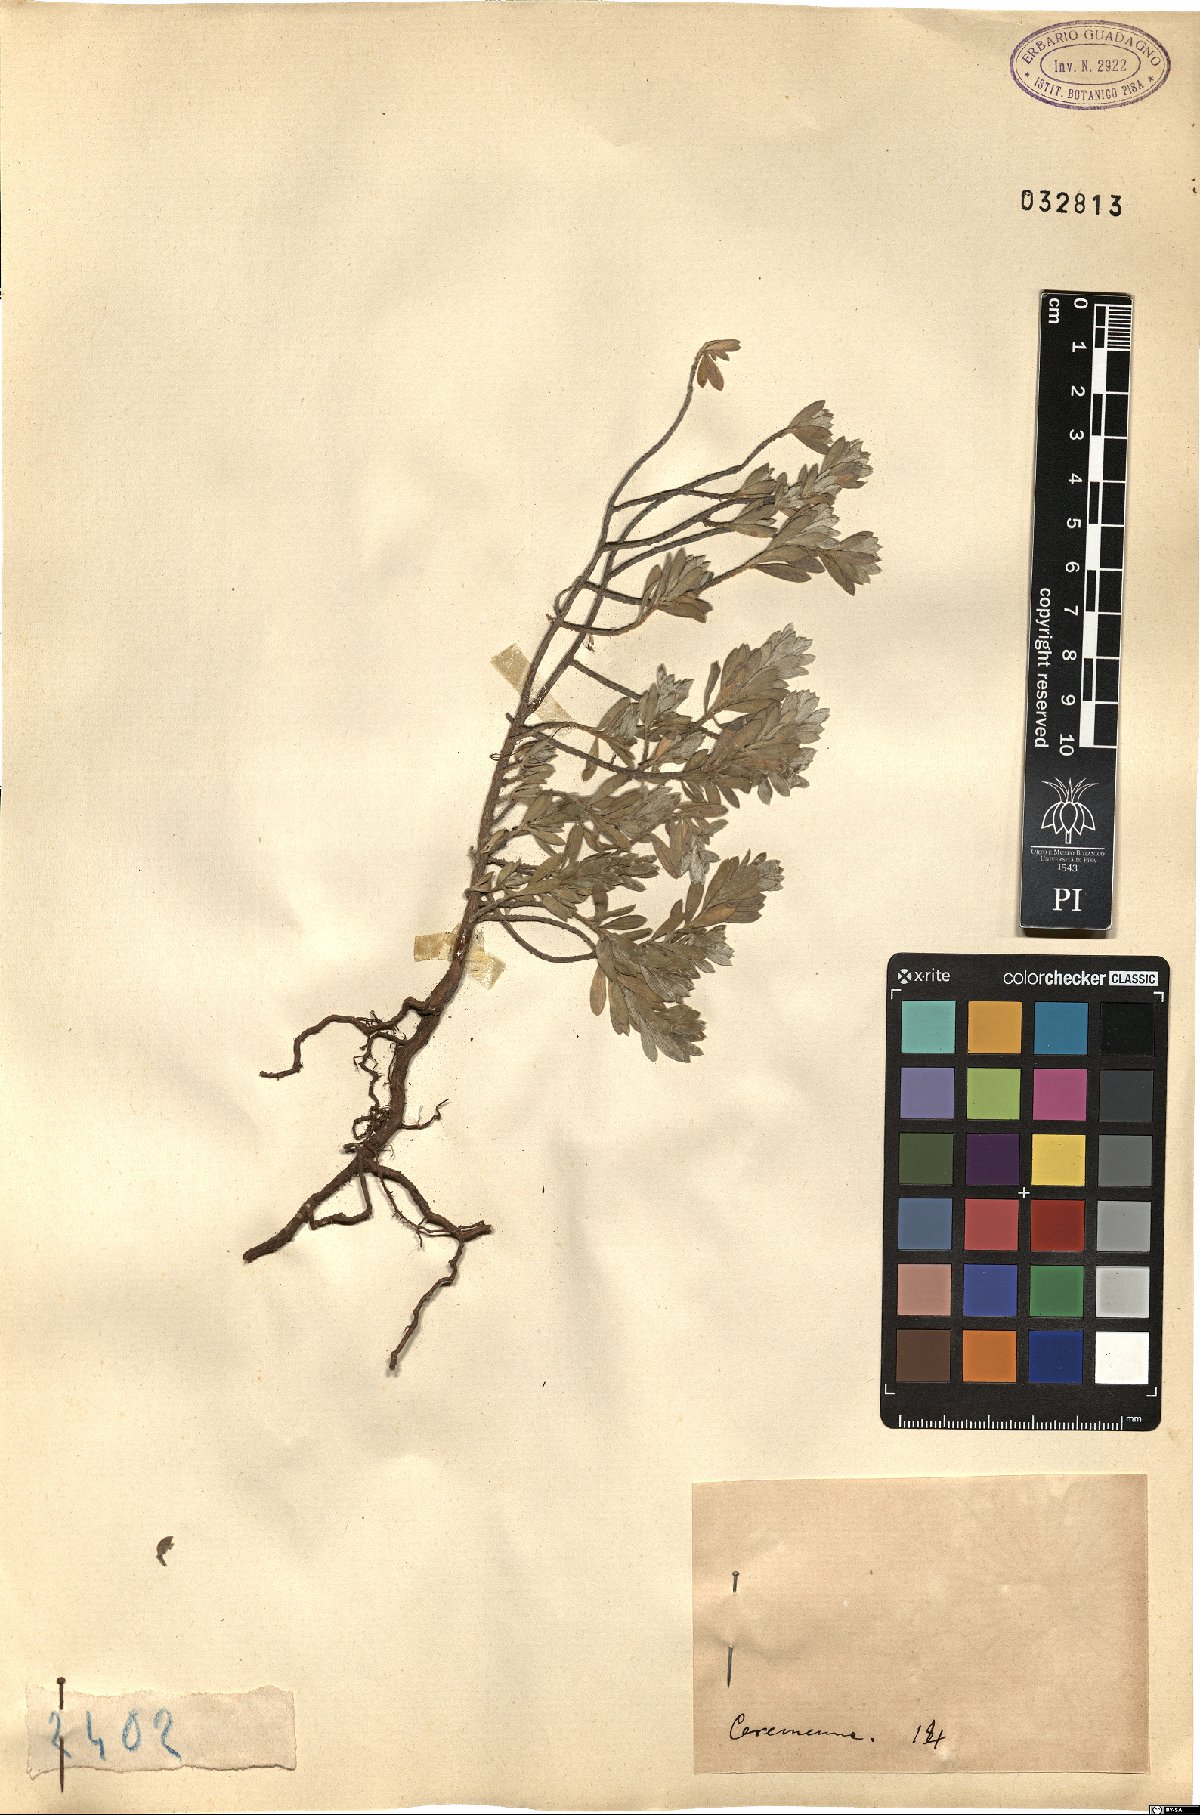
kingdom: Plantae
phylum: Tracheophyta
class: Magnoliopsida
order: Malvales
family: Thymelaeaceae
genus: Thymelaea
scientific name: Thymelaea
